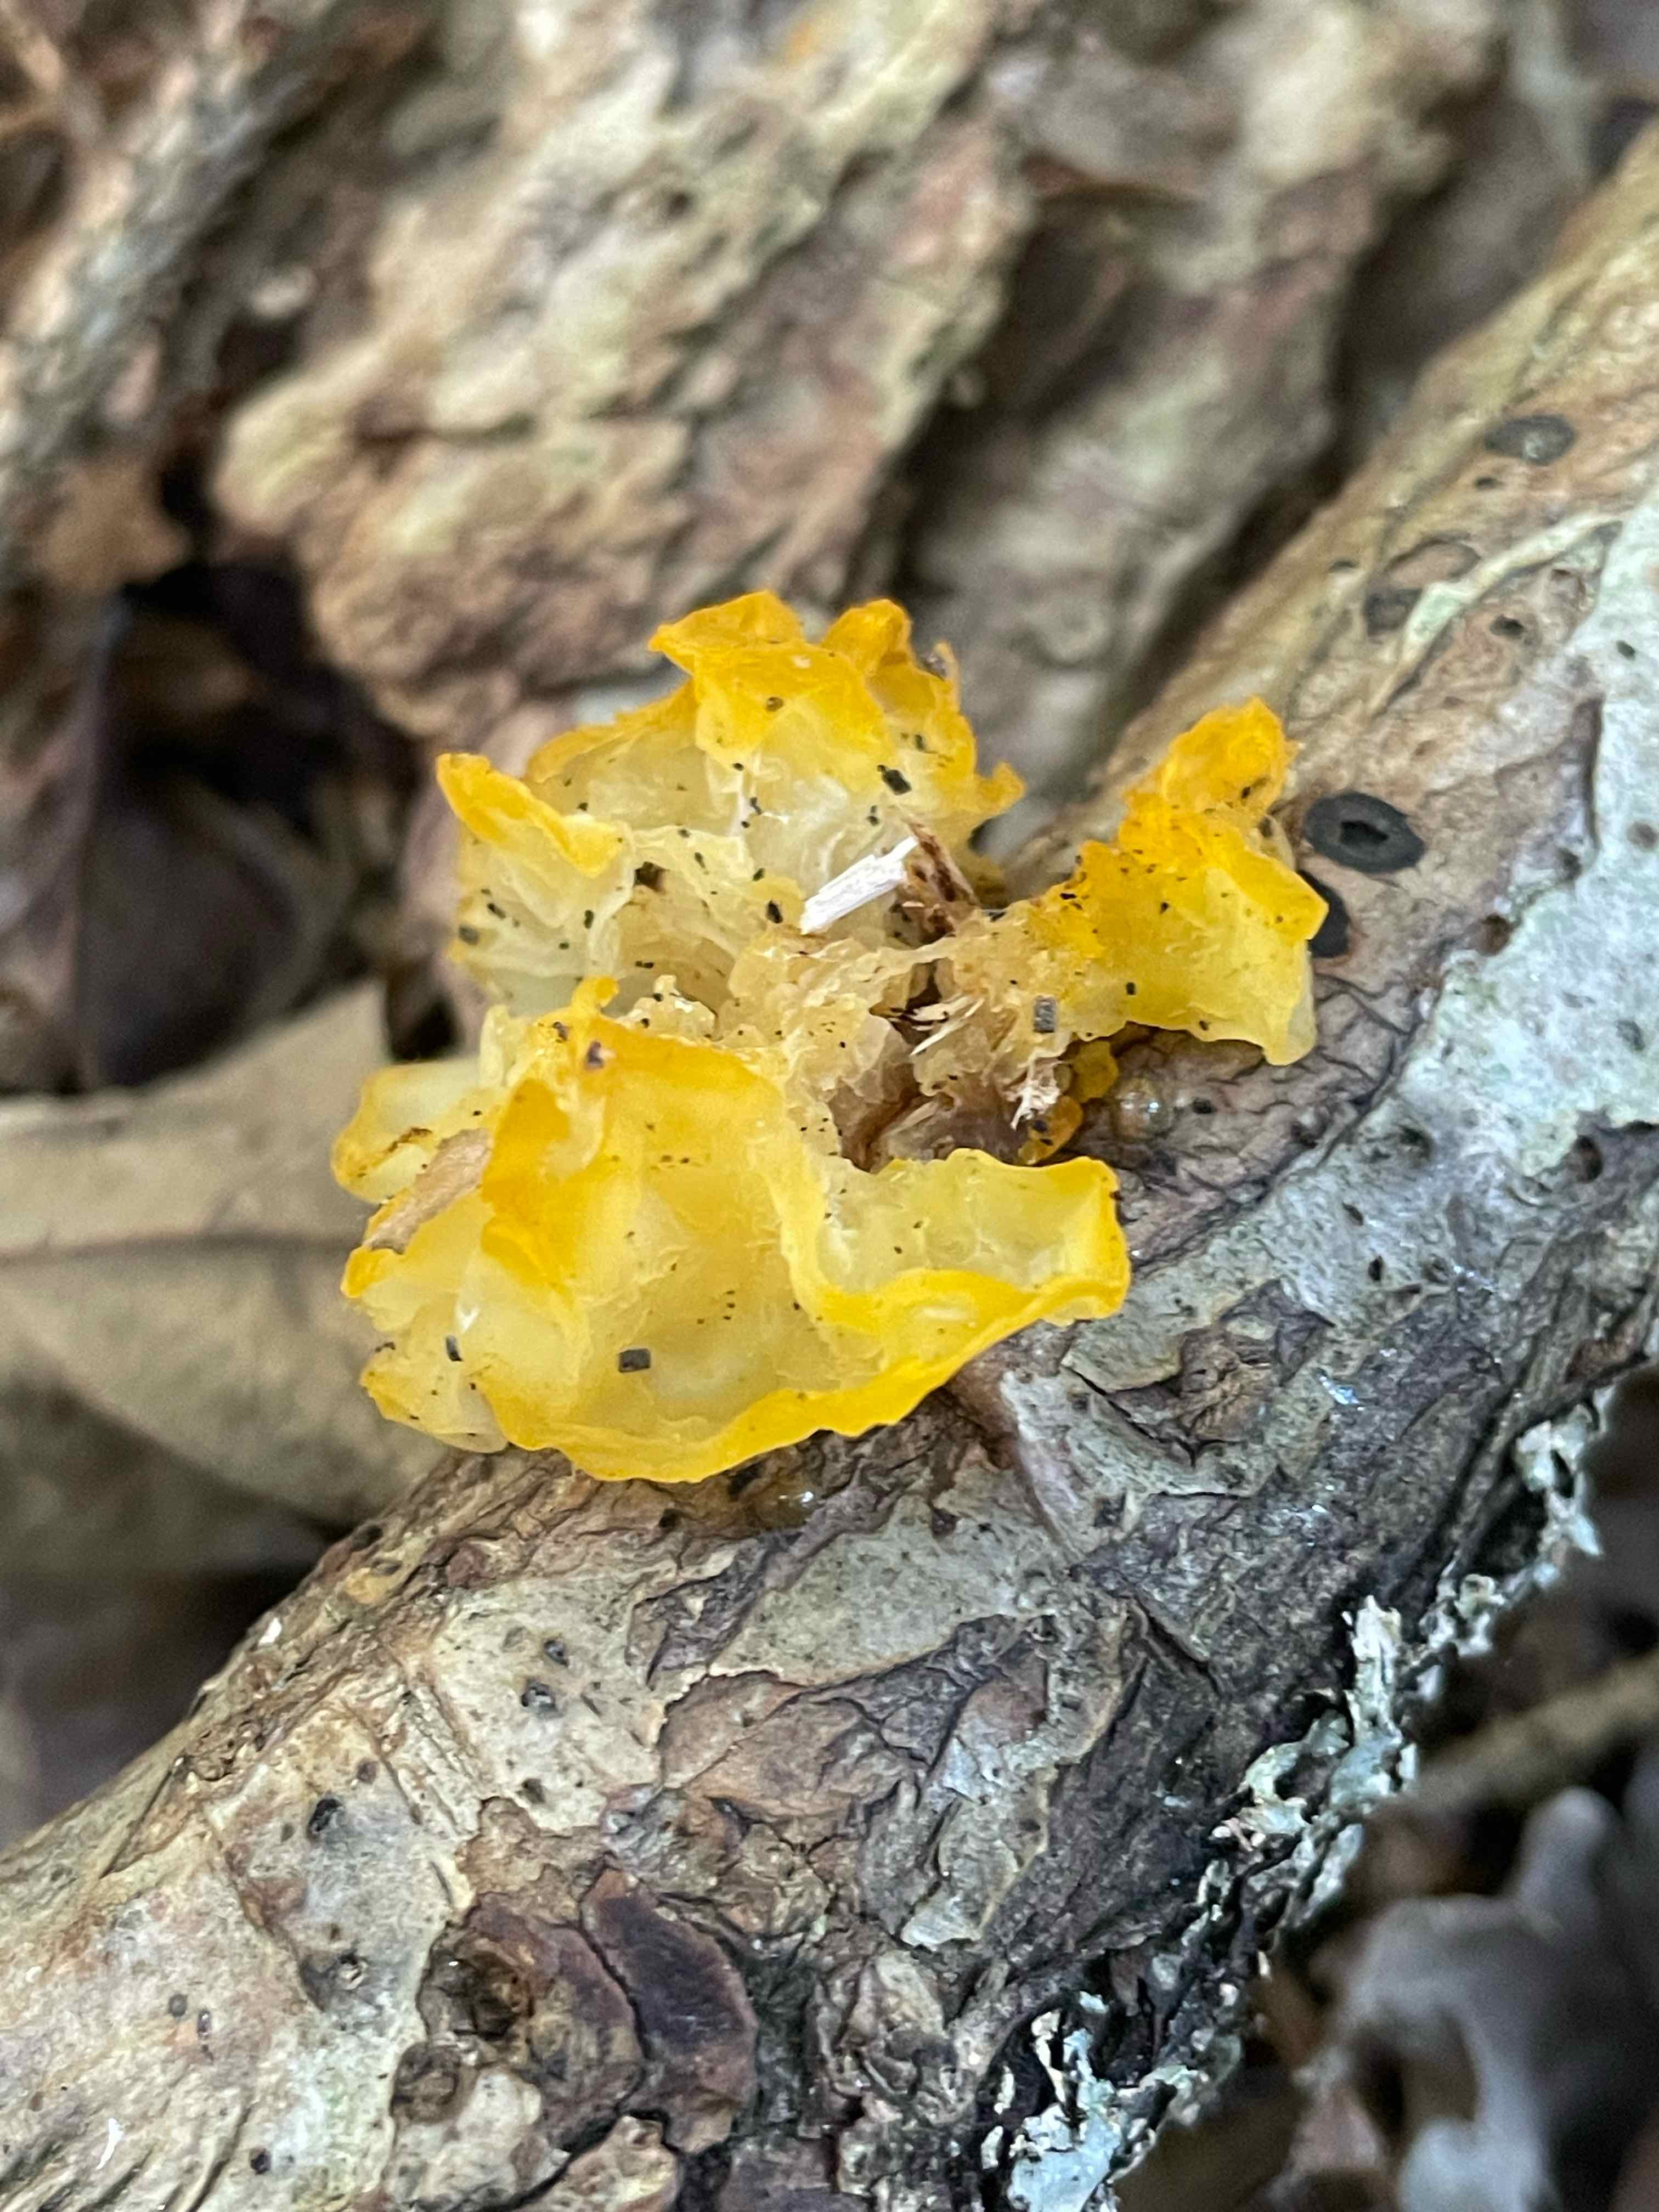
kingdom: Fungi
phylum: Basidiomycota
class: Tremellomycetes
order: Tremellales
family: Tremellaceae
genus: Tremella
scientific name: Tremella mesenterica
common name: gul bævresvamp
